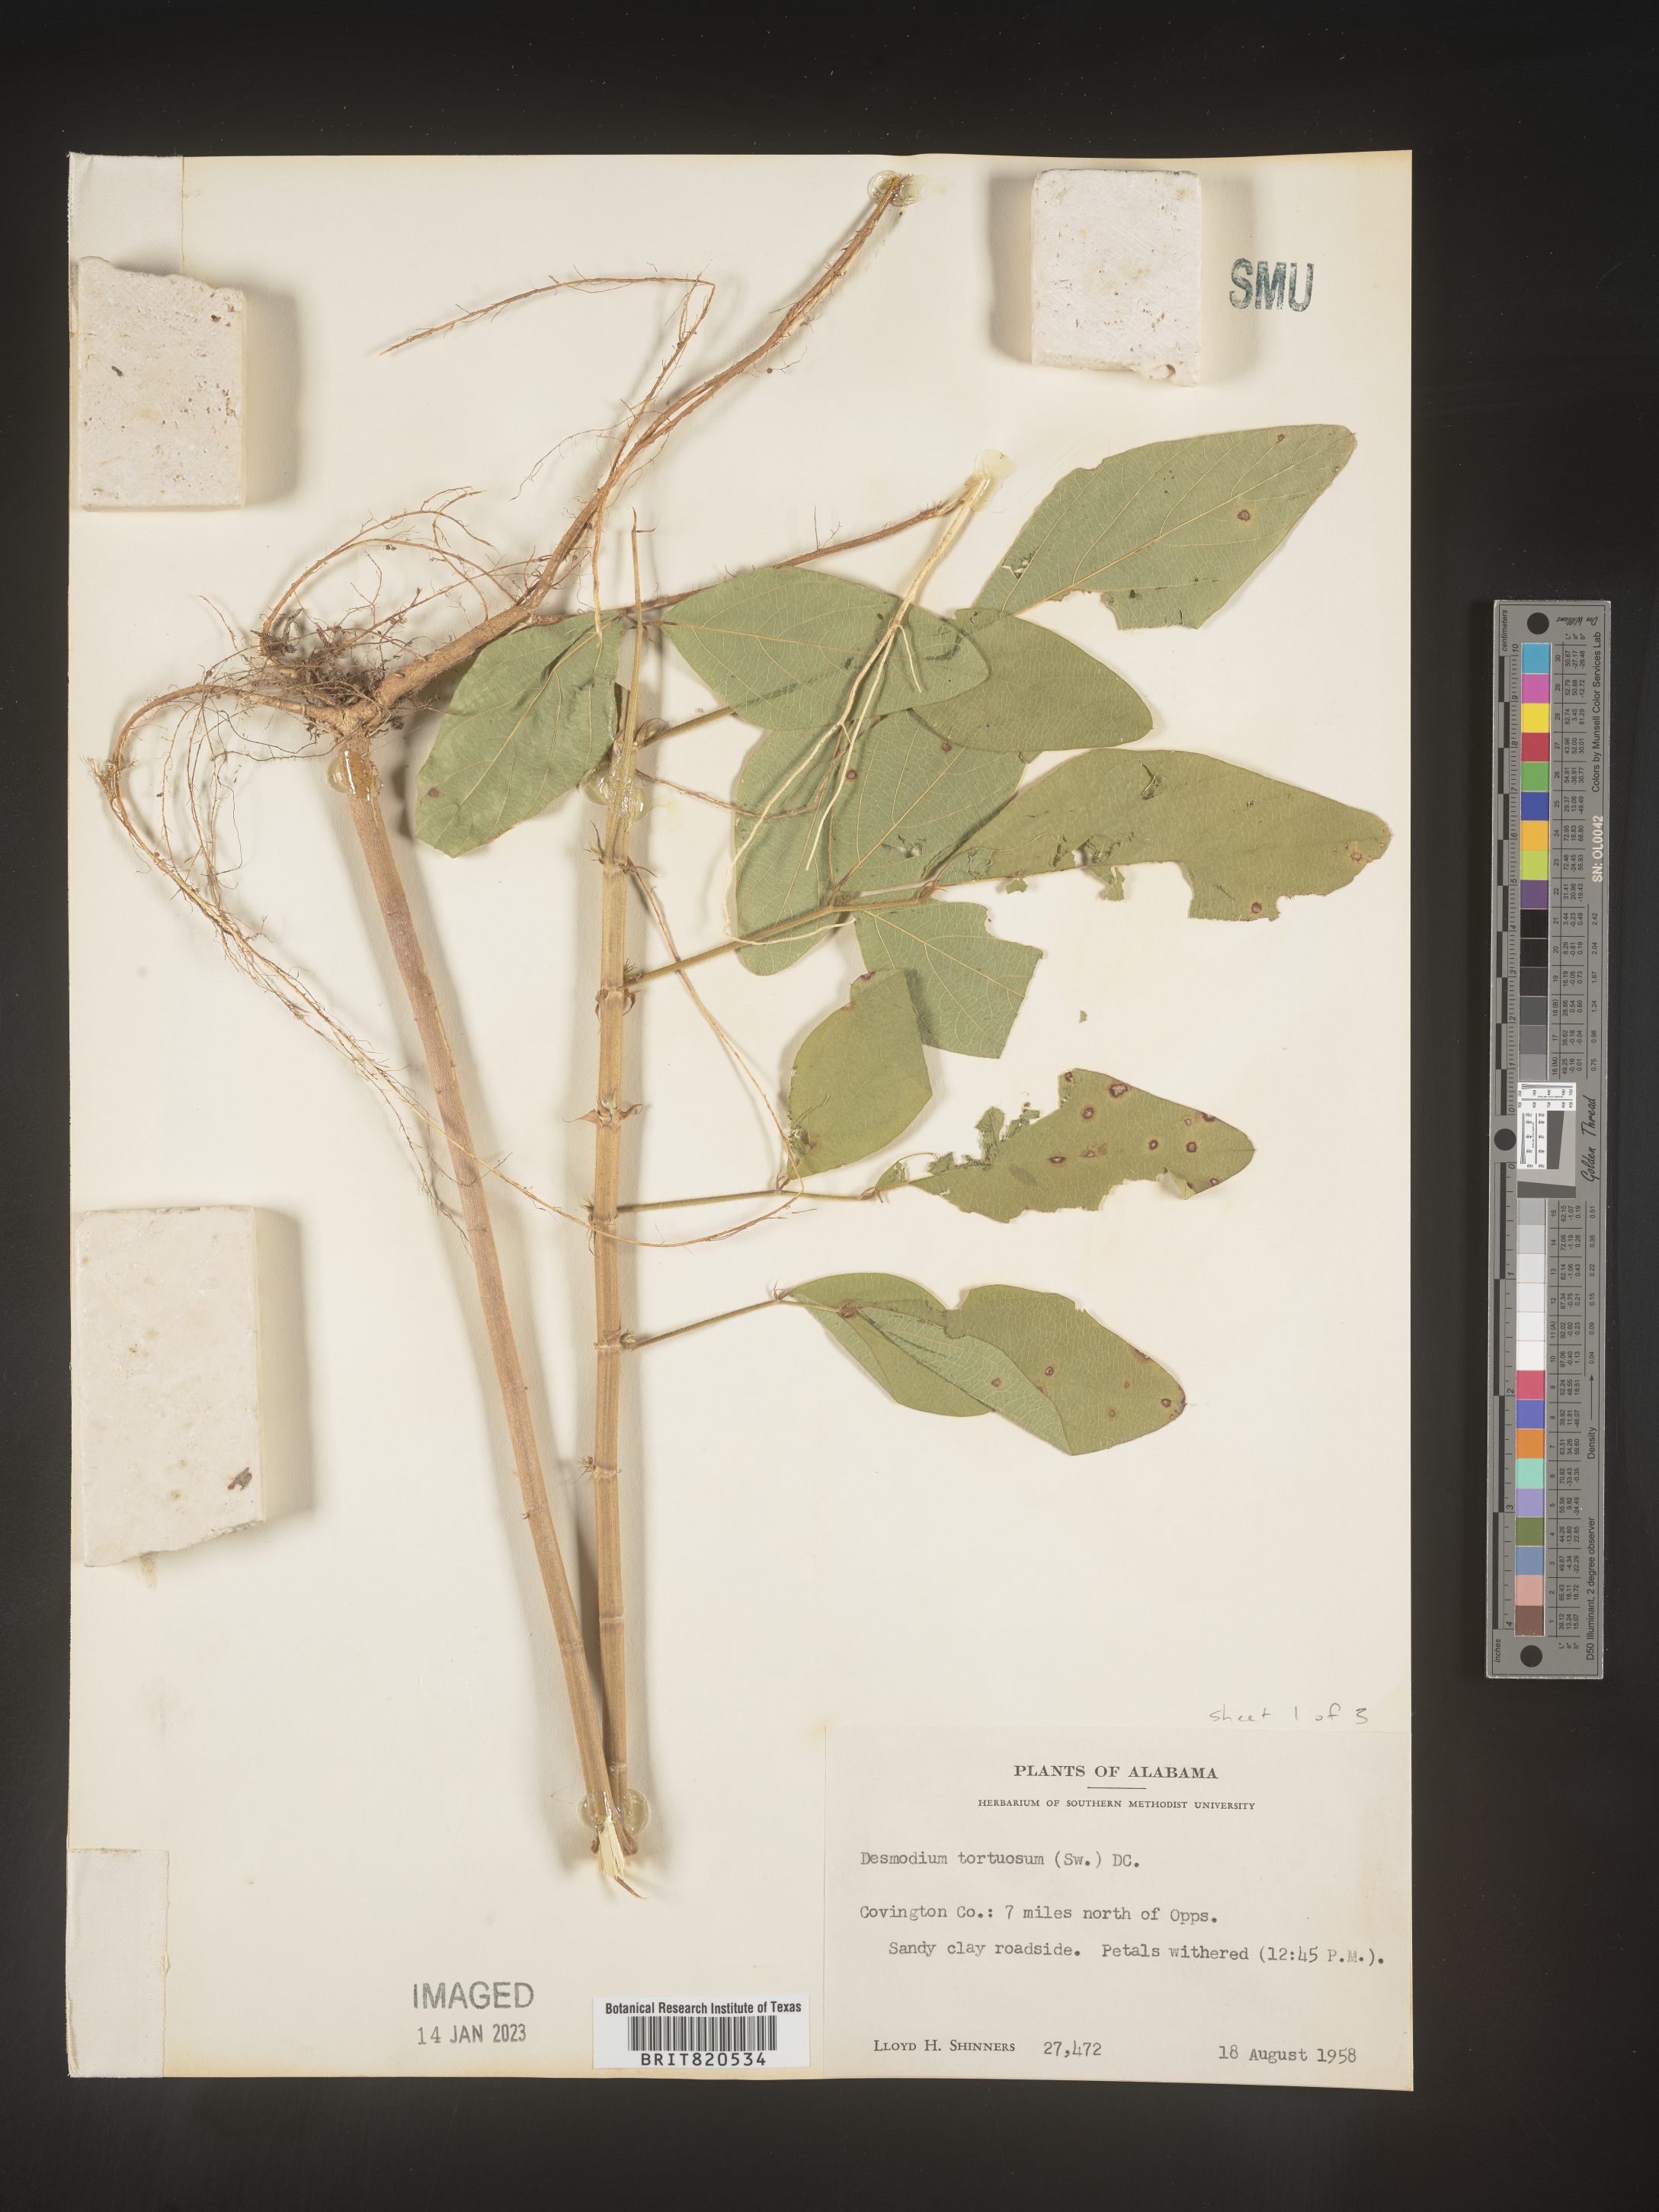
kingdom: Plantae
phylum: Tracheophyta
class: Magnoliopsida
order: Fabales
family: Fabaceae
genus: Desmodium
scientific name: Desmodium tortuosum
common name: Dixie ticktrefoil
